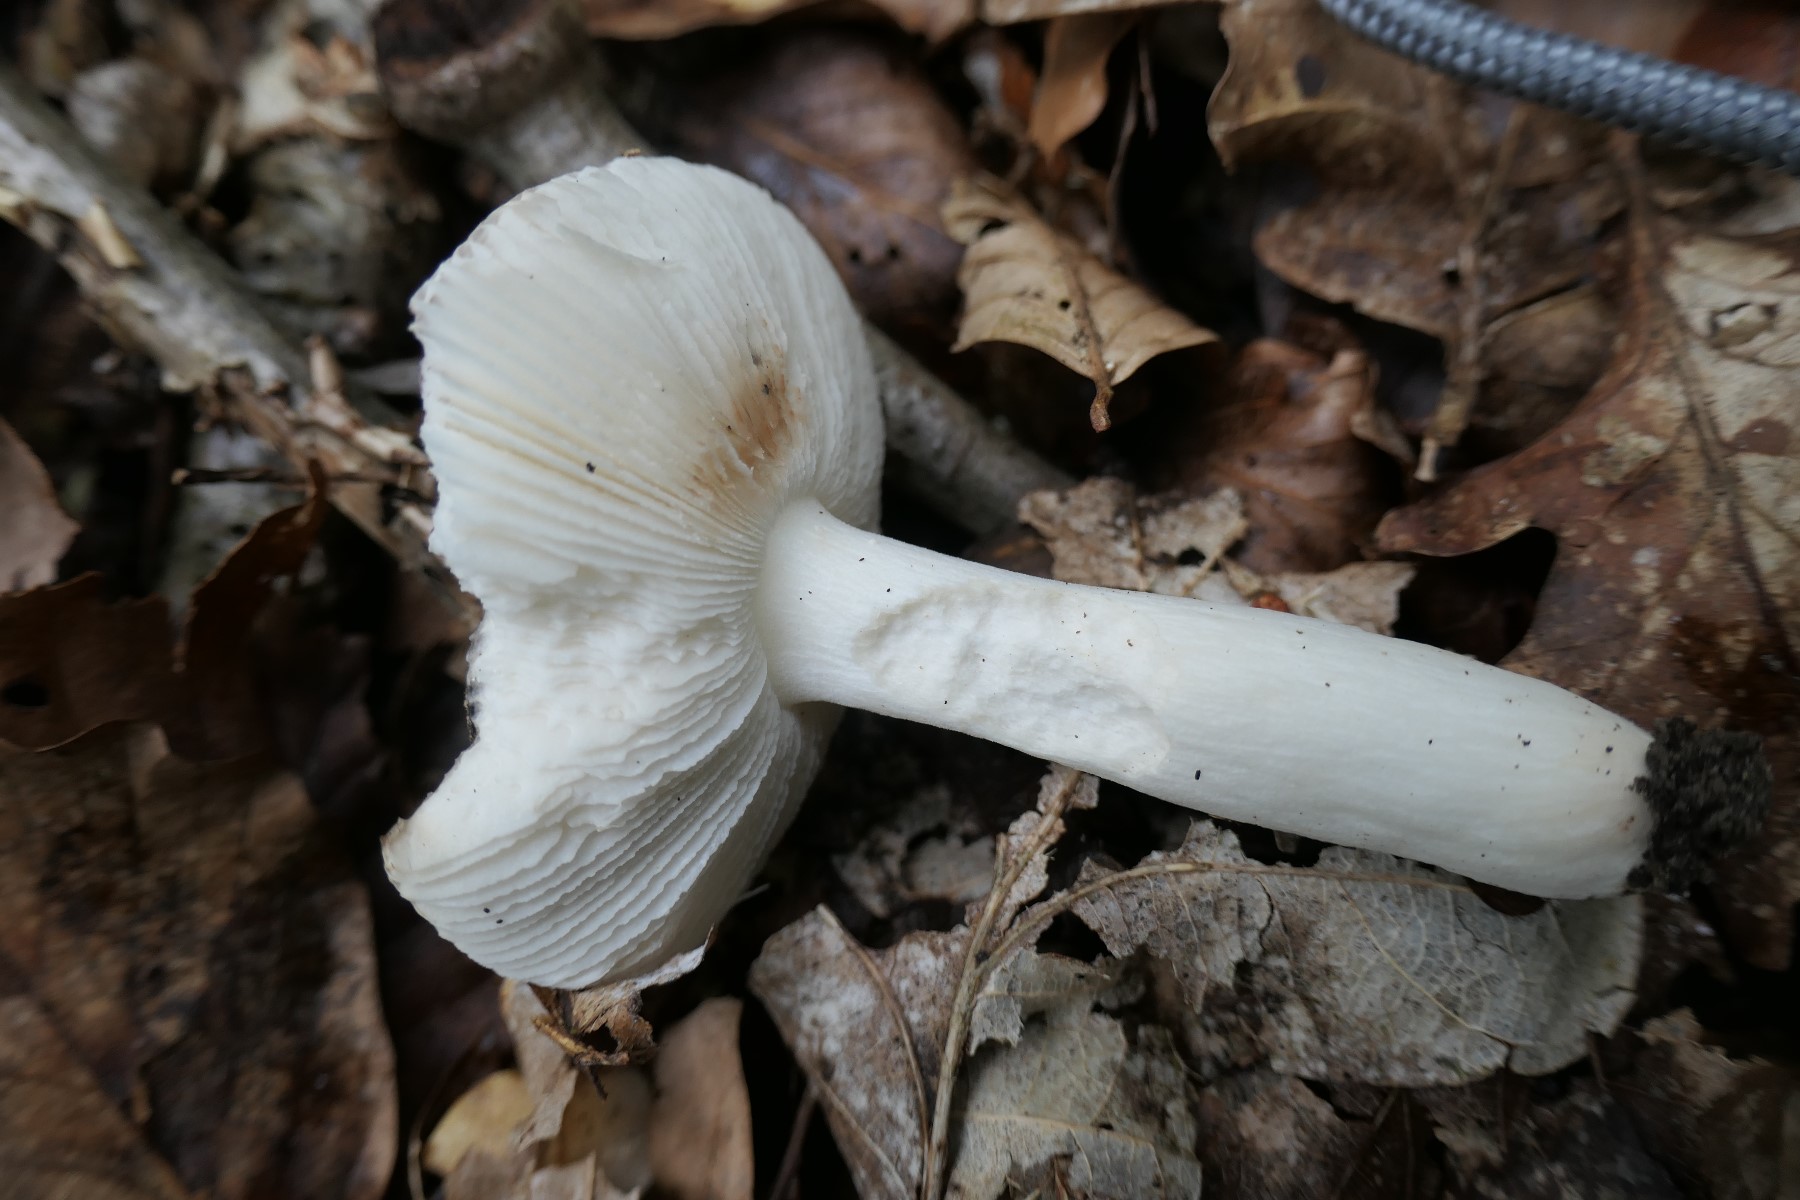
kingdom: Fungi
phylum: Basidiomycota
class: Agaricomycetes
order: Russulales
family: Russulaceae
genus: Russula
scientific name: Russula fragilis
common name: savbladet skørhat
